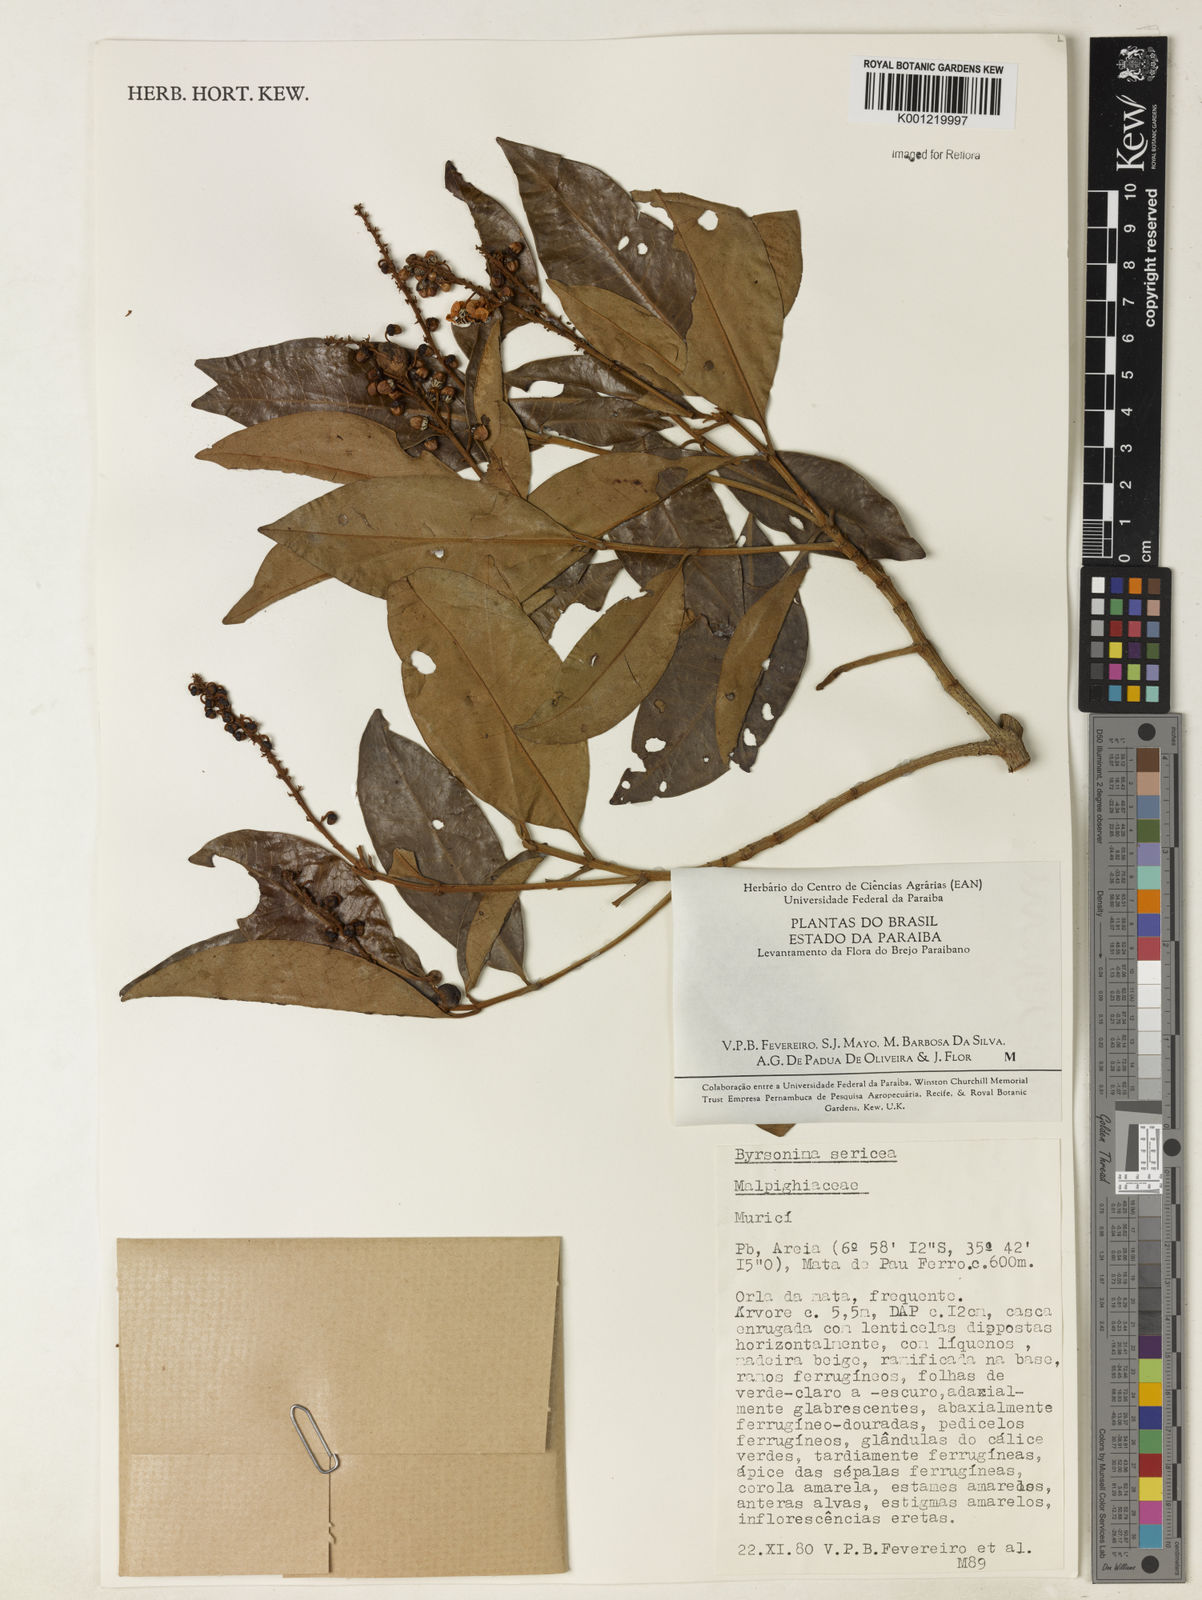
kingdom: Plantae
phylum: Tracheophyta
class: Magnoliopsida
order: Malpighiales
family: Malpighiaceae
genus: Byrsonima
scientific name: Byrsonima sericea
